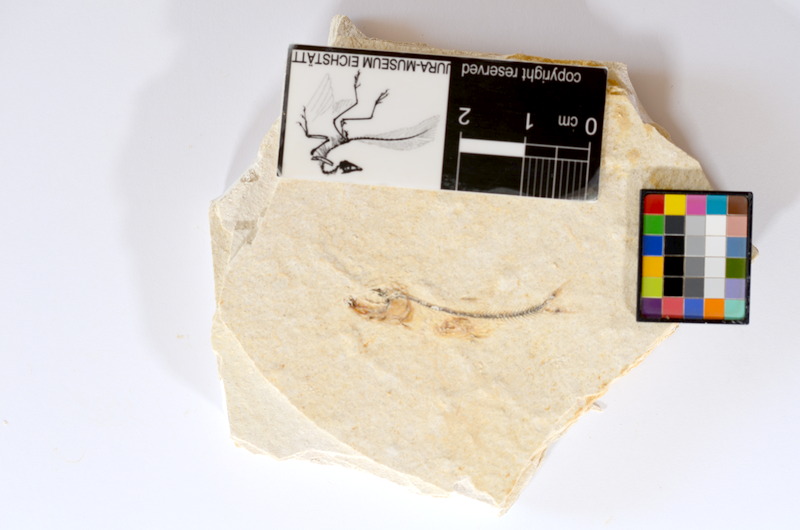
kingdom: Animalia
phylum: Chordata
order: Salmoniformes
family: Orthogonikleithridae
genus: Orthogonikleithrus
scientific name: Orthogonikleithrus hoelli
